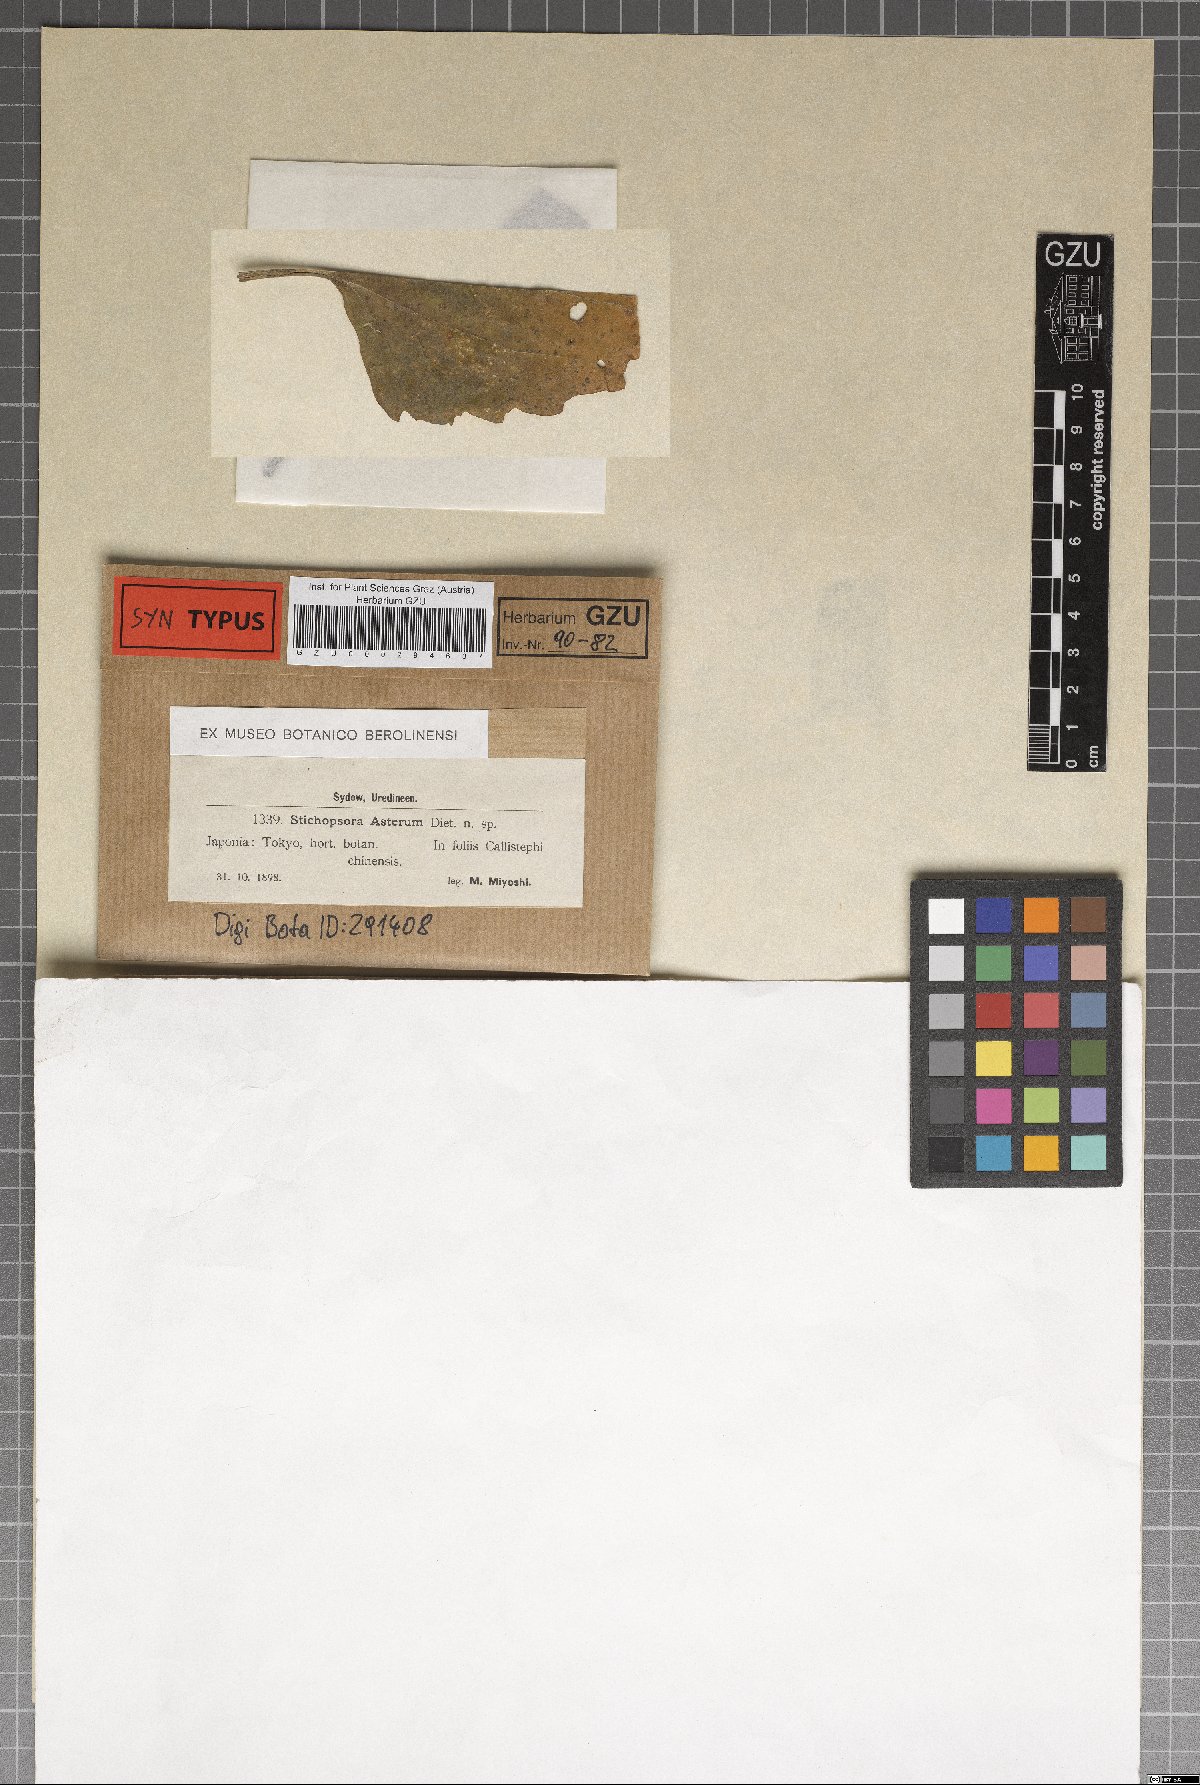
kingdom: Fungi
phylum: Basidiomycota
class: Pucciniomycetes
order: Pucciniales
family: Coleosporiaceae
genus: Coleosporium
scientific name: Coleosporium asterum
